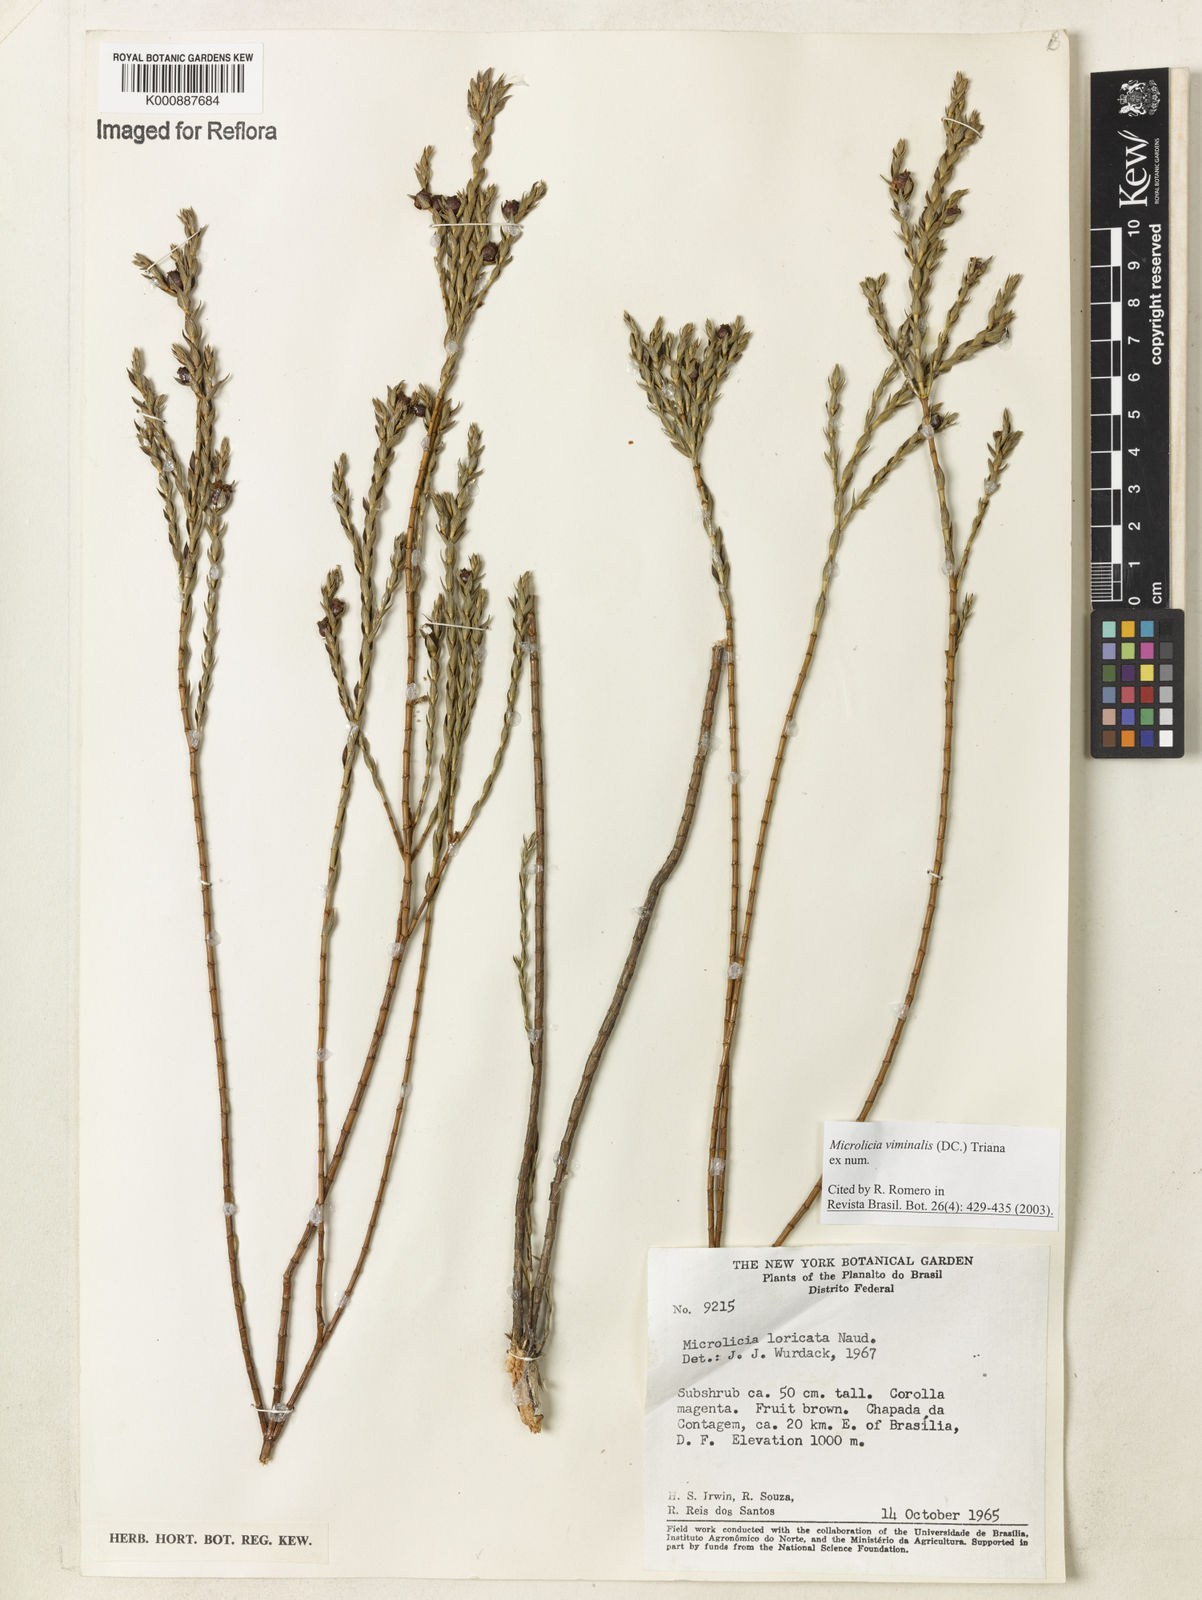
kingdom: Plantae
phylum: Tracheophyta
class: Magnoliopsida
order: Myrtales
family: Melastomataceae
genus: Microlicia
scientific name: Microlicia viminalis
